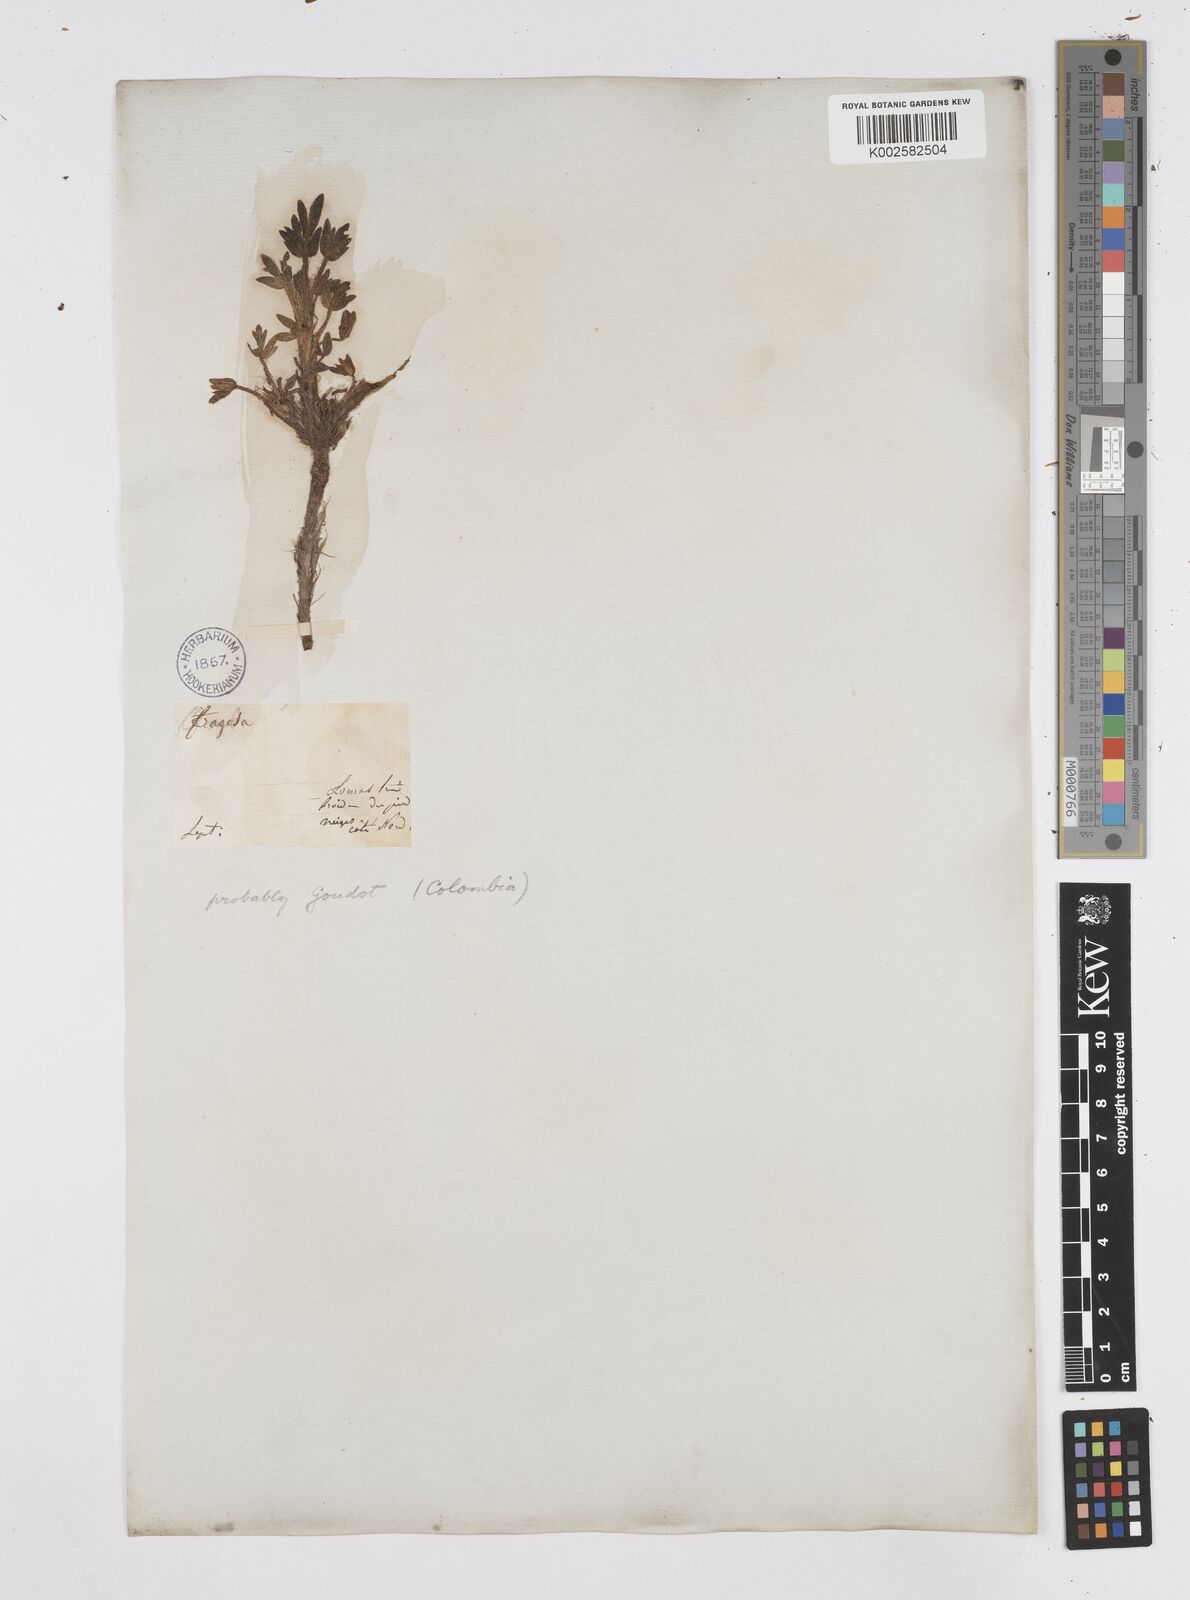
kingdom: Plantae
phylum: Tracheophyta
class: Magnoliopsida
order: Apiales
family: Apiaceae
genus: Azorella
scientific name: Azorella aretioides
